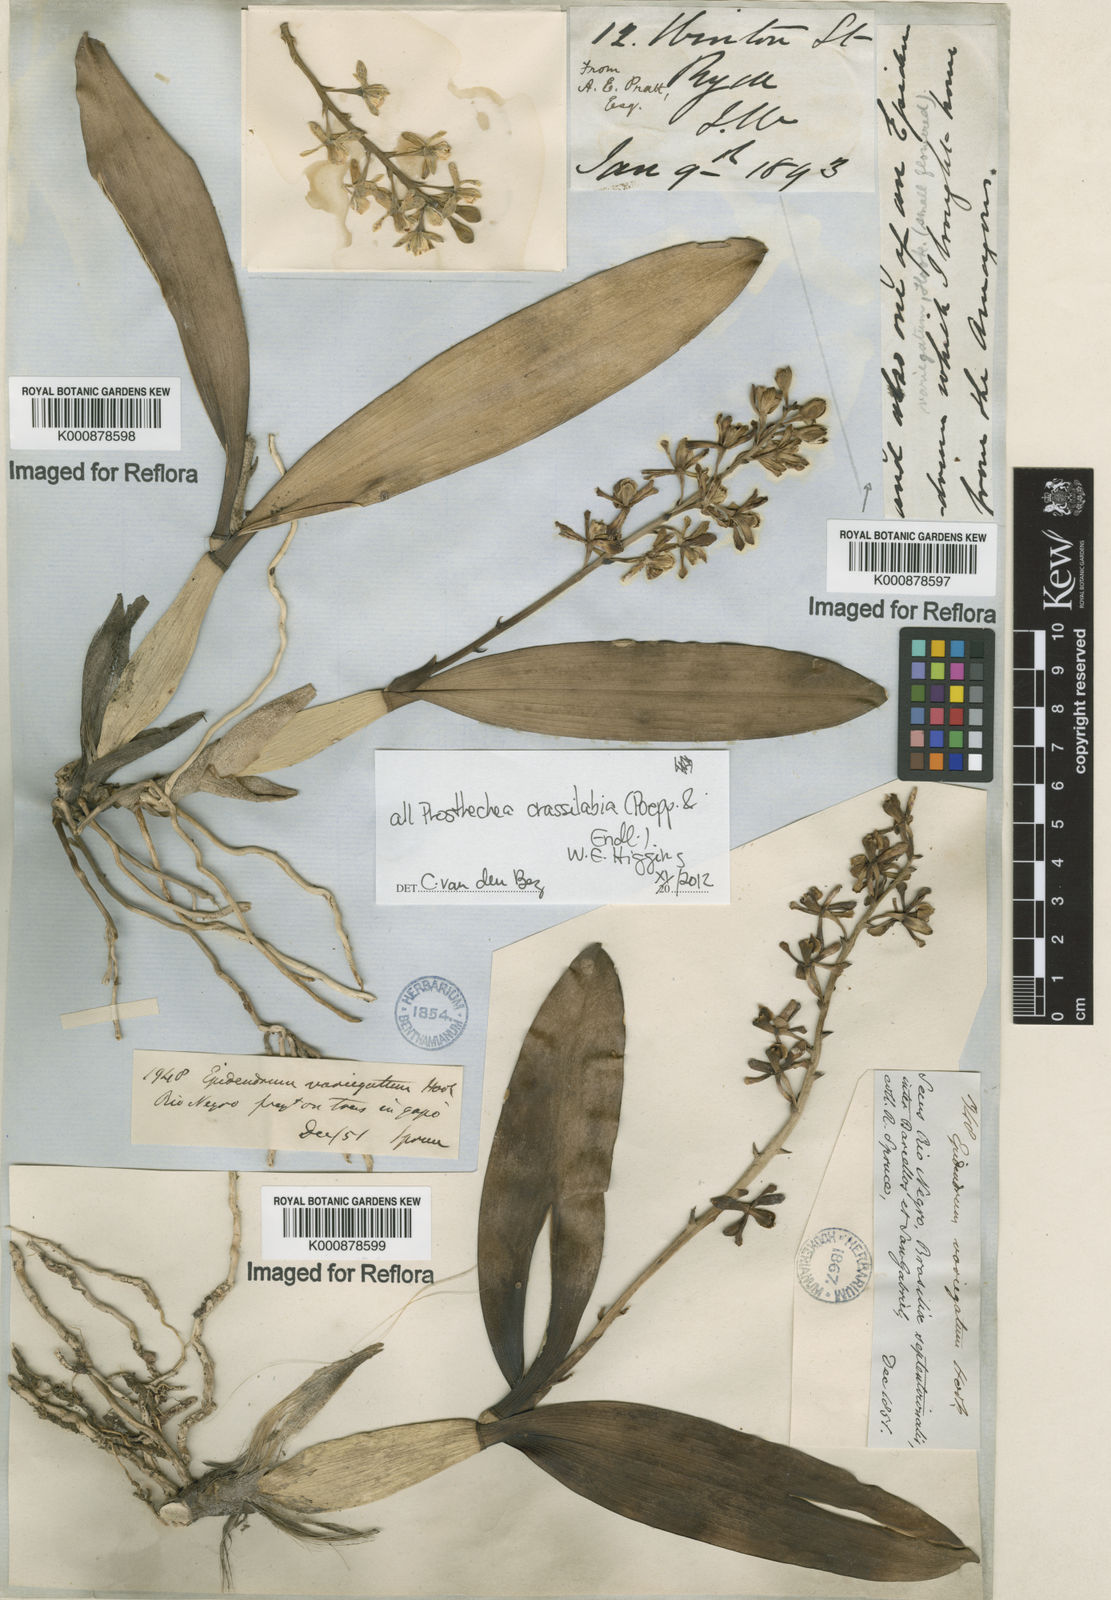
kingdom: Plantae
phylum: Tracheophyta
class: Liliopsida
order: Asparagales
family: Orchidaceae
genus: Prosthechea
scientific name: Prosthechea
